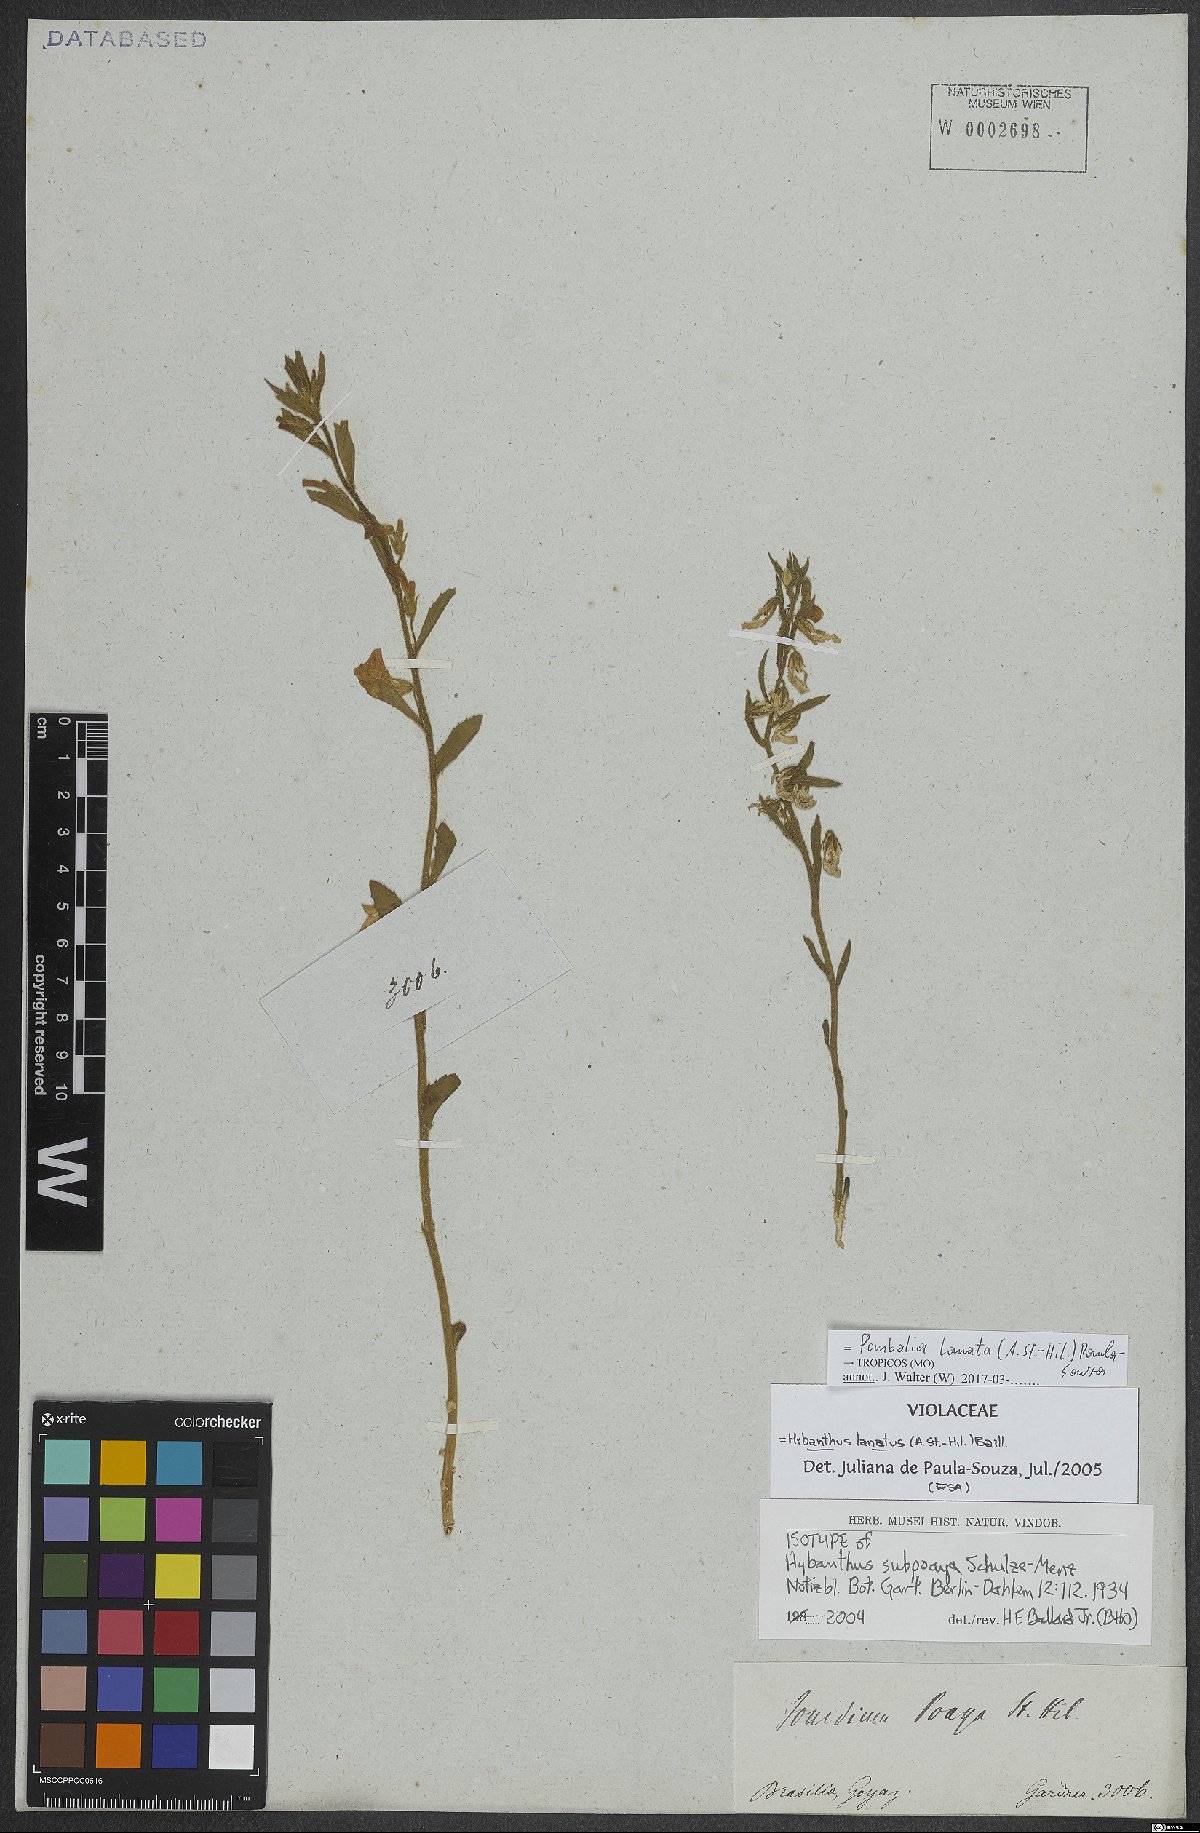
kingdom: Plantae
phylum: Tracheophyta
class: Magnoliopsida
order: Malpighiales
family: Violaceae
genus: Pombalia
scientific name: Pombalia lanata
